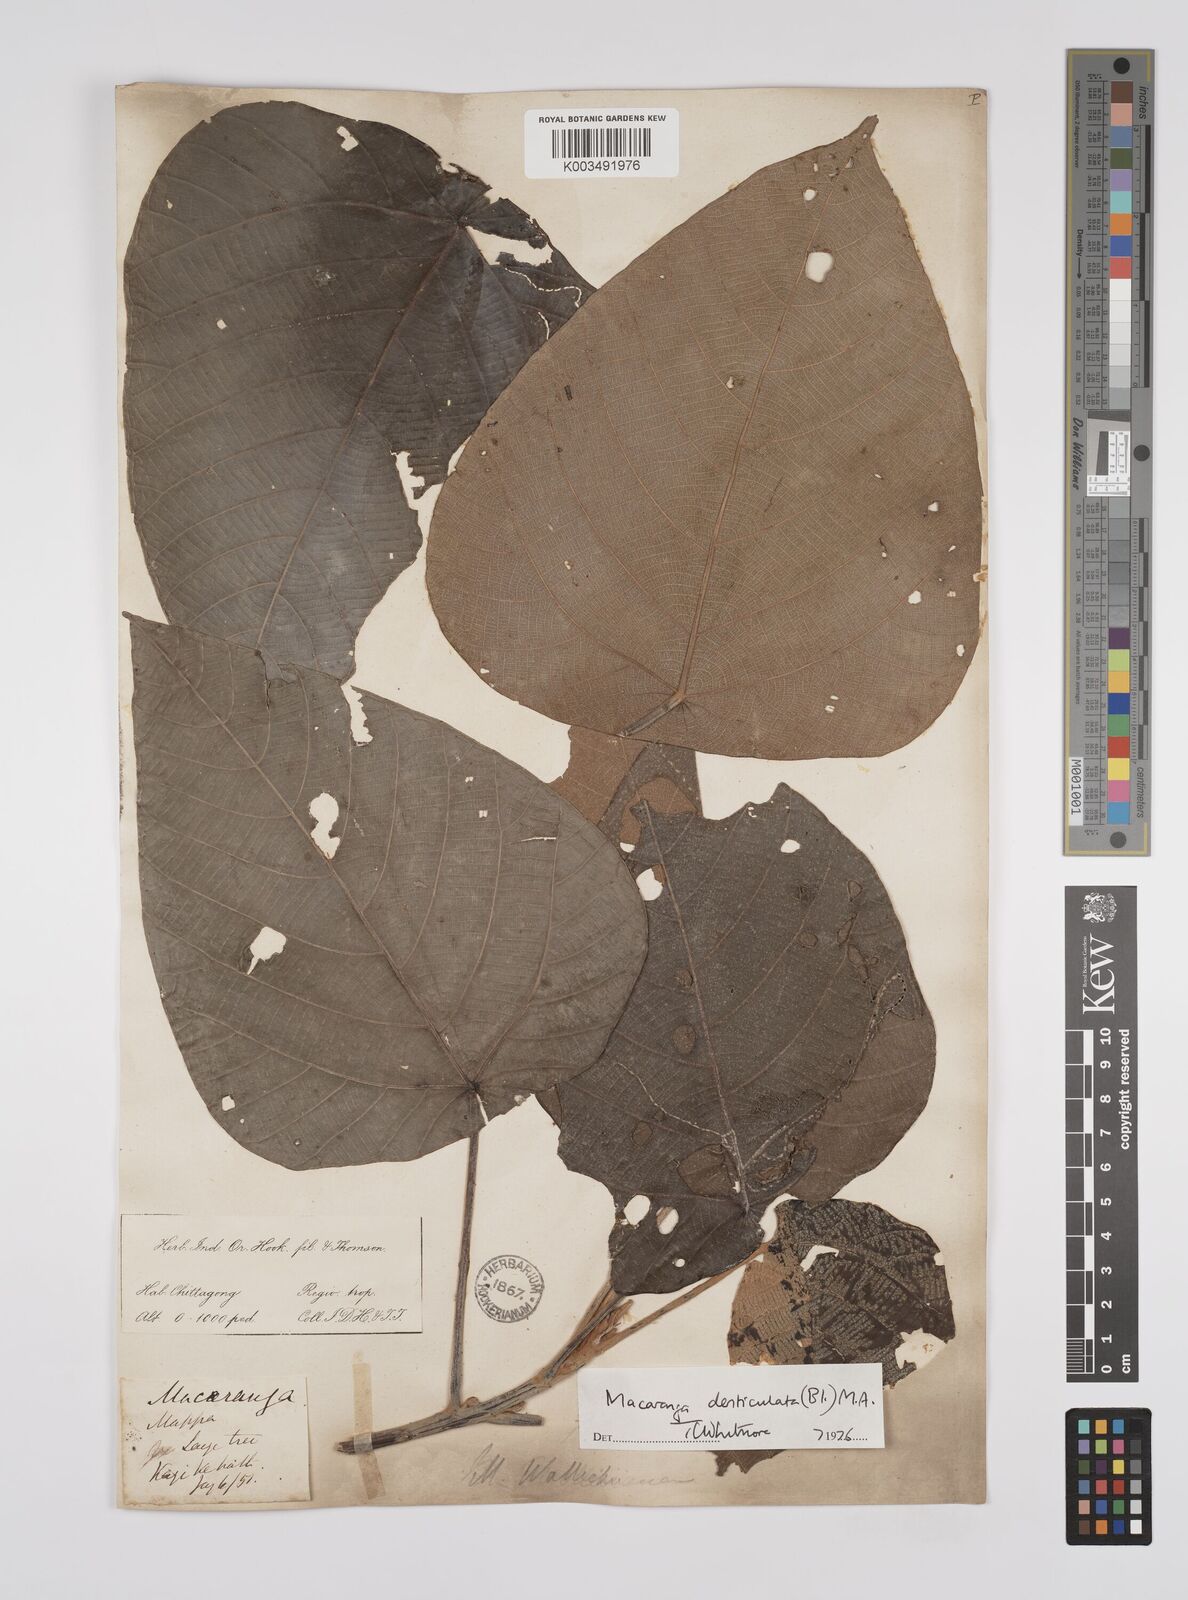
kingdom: Plantae
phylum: Tracheophyta
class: Magnoliopsida
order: Malpighiales
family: Euphorbiaceae
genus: Macaranga
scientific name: Macaranga
